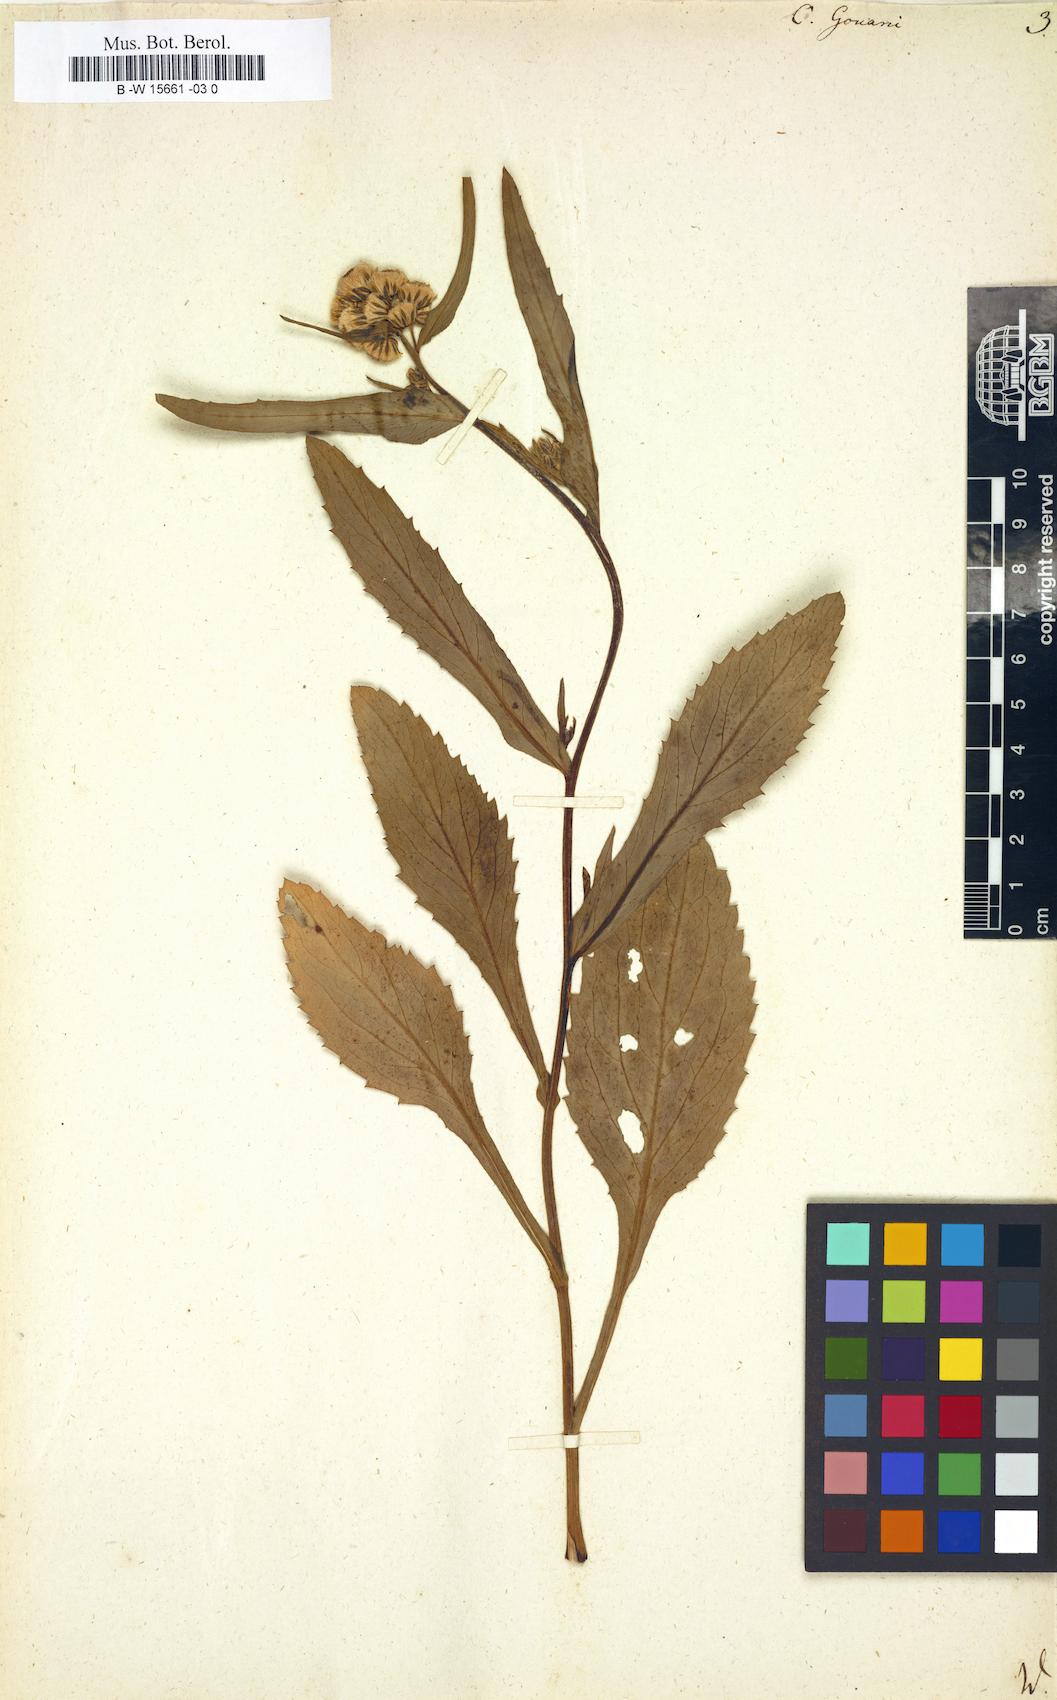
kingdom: Plantae
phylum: Tracheophyta
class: Magnoliopsida
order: Asterales
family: Asteraceae
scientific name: Asteraceae
